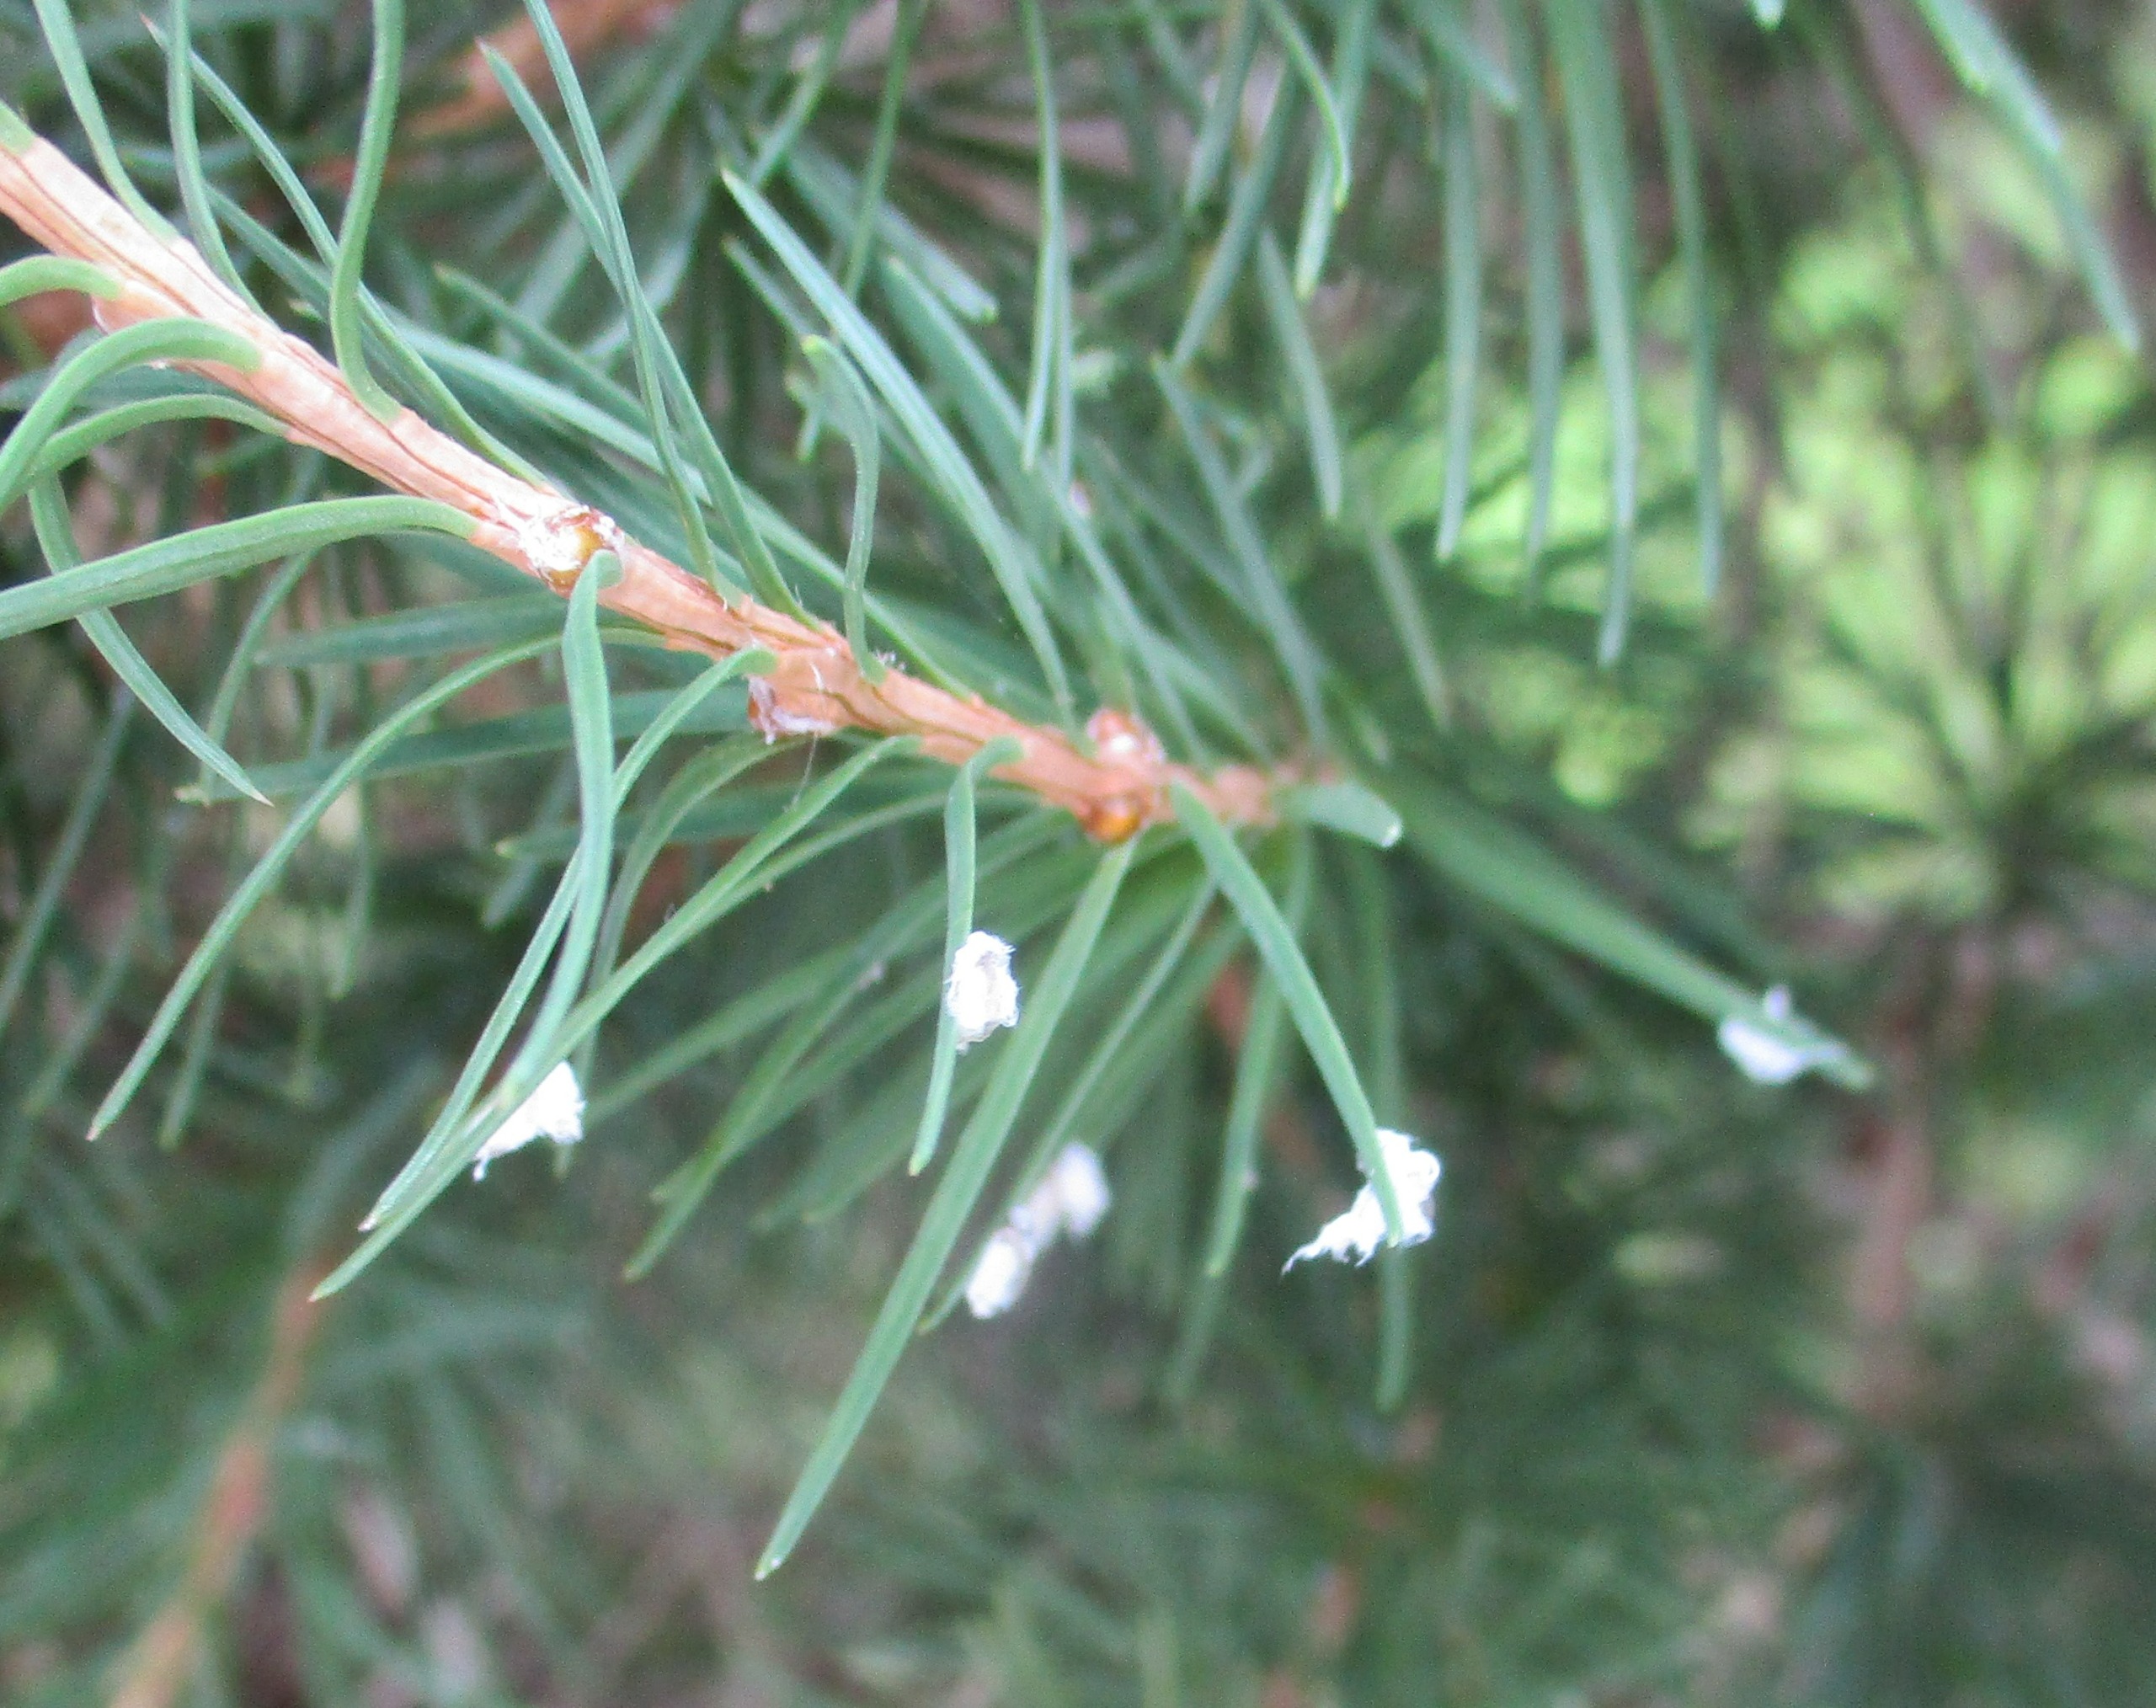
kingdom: Animalia
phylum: Arthropoda
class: Insecta
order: Hemiptera
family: Adelgidae
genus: Adelges
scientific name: Adelges
